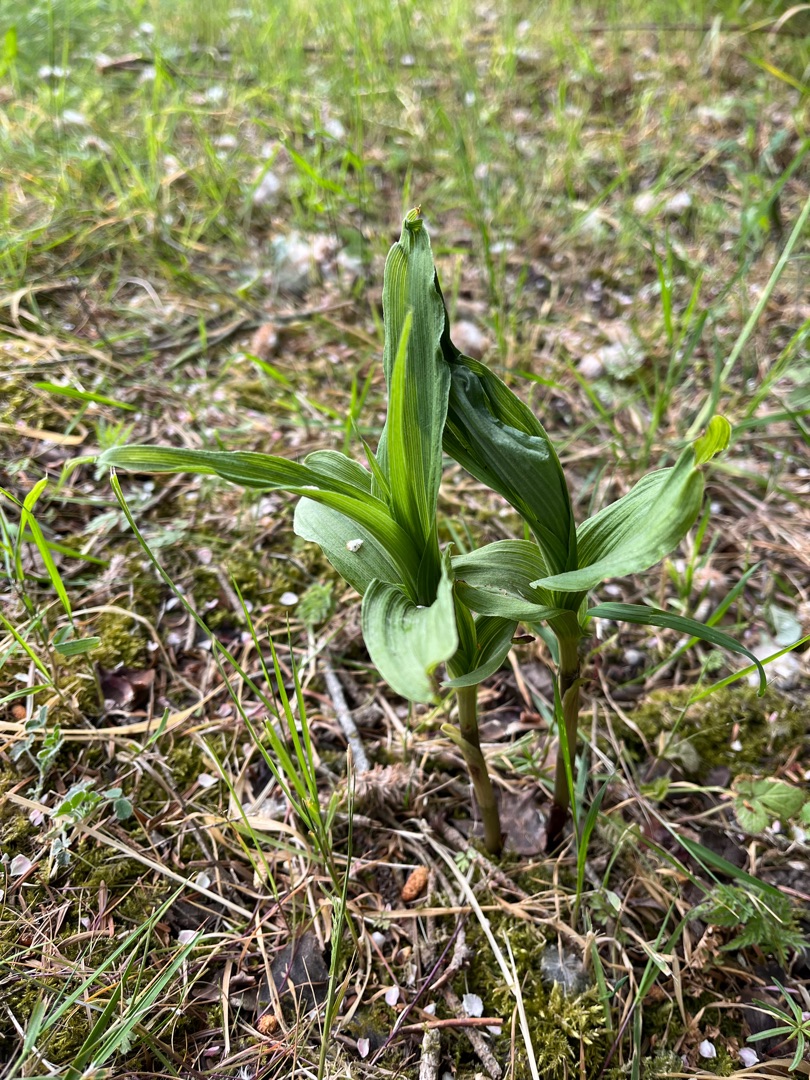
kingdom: Plantae
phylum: Tracheophyta
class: Liliopsida
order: Asparagales
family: Orchidaceae
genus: Epipactis
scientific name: Epipactis helleborine
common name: Skov-hullæbe
